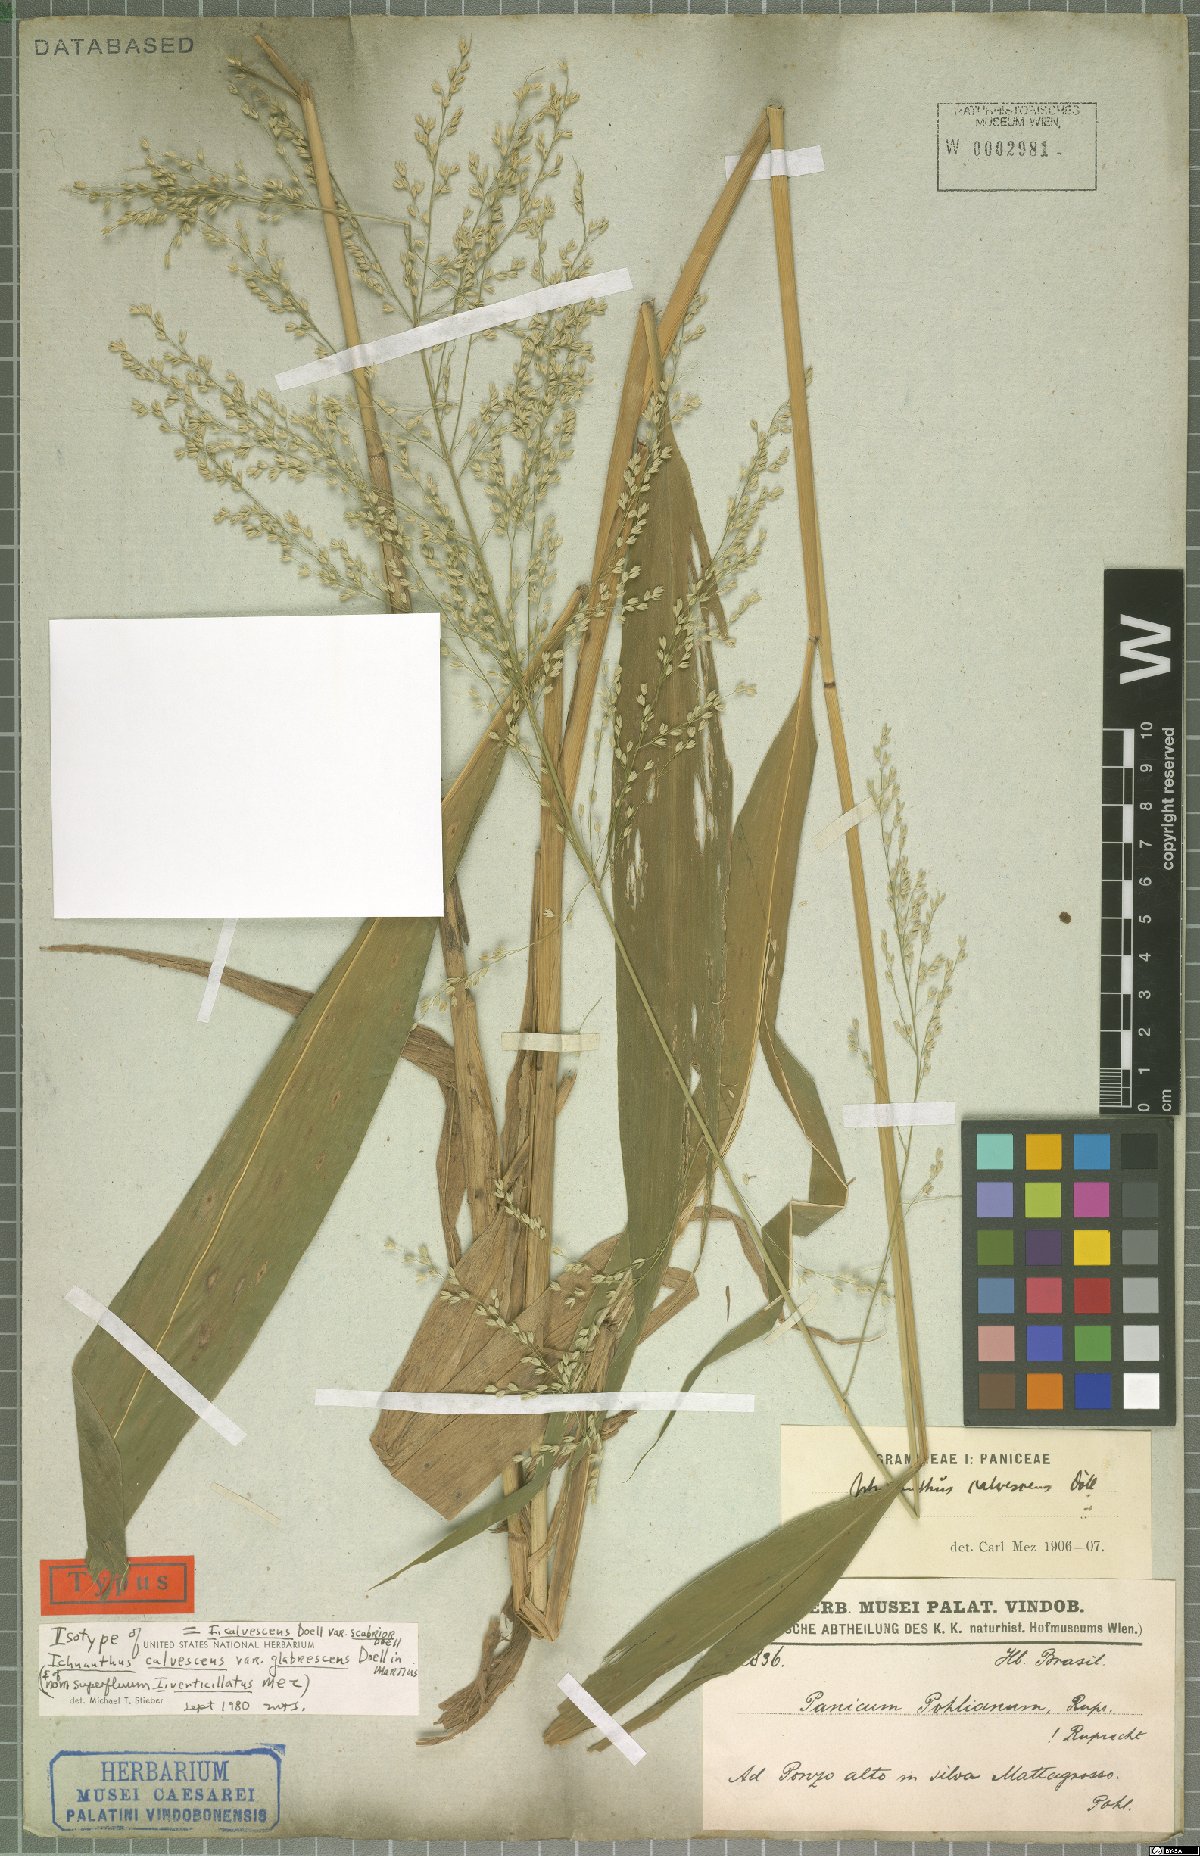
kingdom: Plantae
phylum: Tracheophyta
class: Liliopsida
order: Poales
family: Poaceae
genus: Ichnanthus
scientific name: Ichnanthus calvescens
